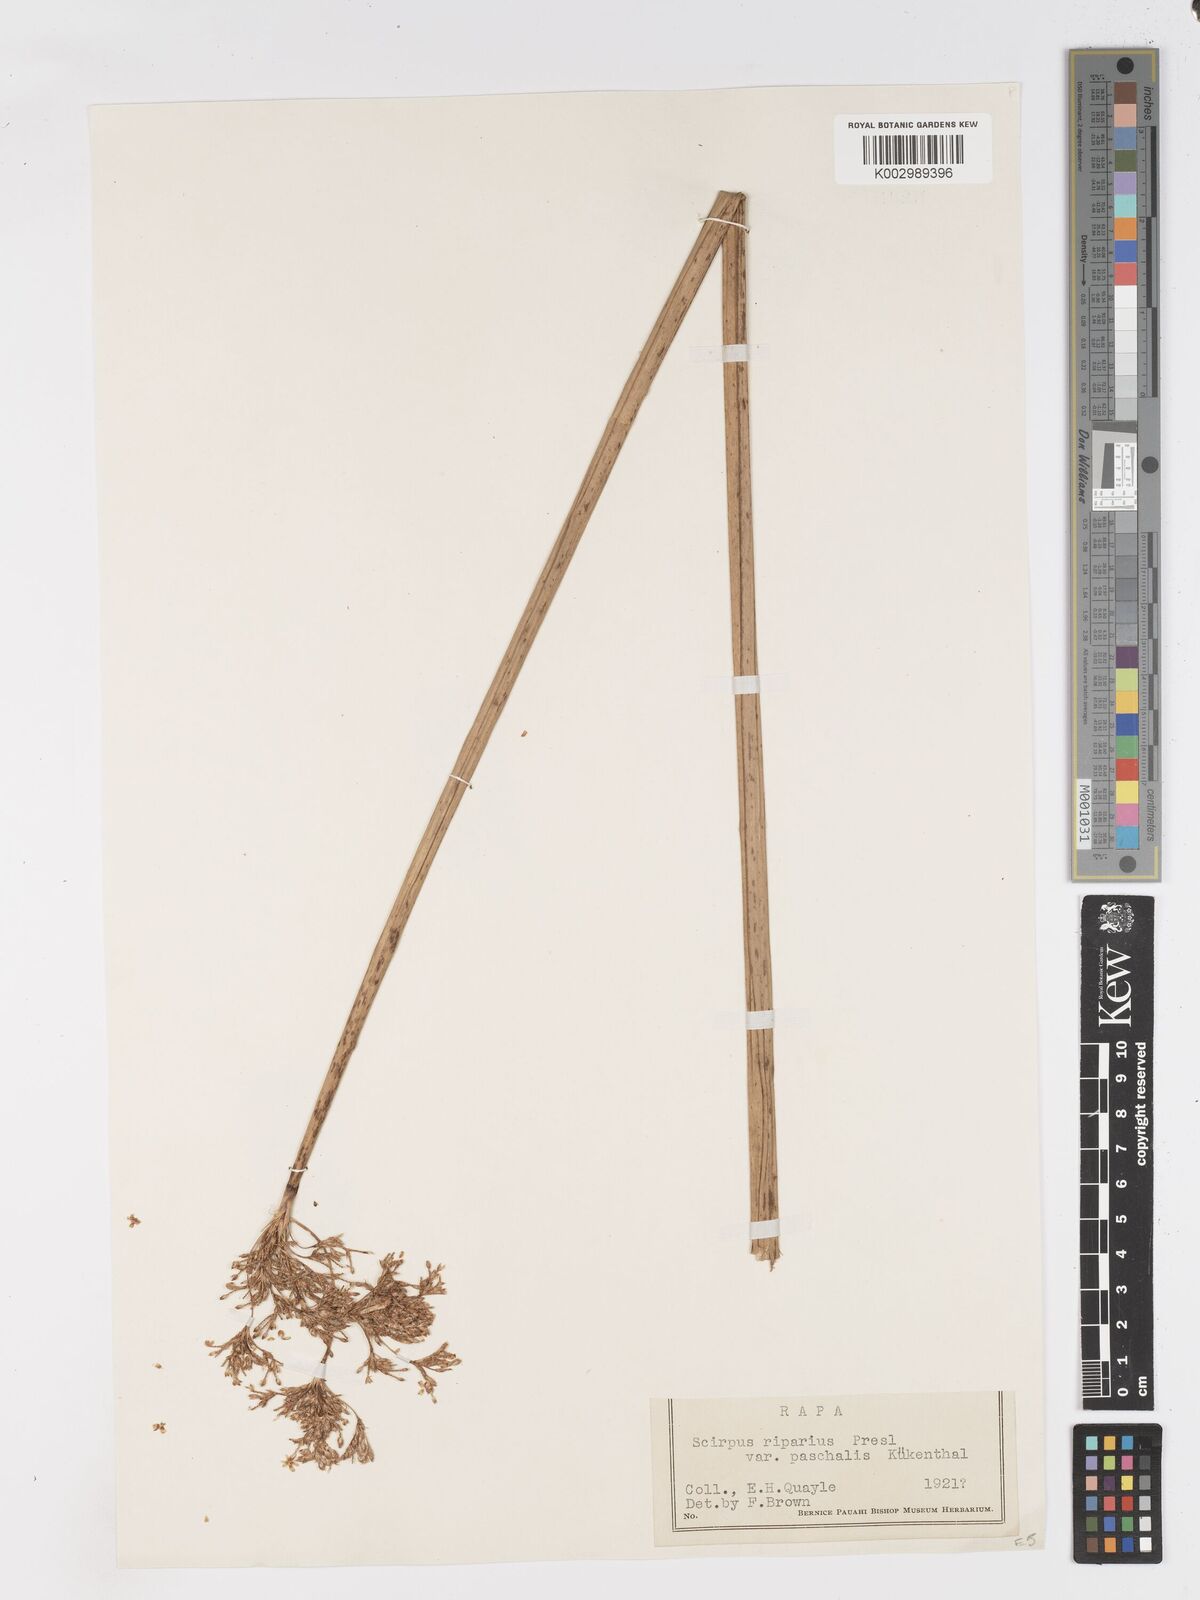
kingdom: Plantae
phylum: Tracheophyta
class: Liliopsida
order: Poales
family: Cyperaceae
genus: Schoenoplectus
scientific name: Schoenoplectus californicus
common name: California bulrush
